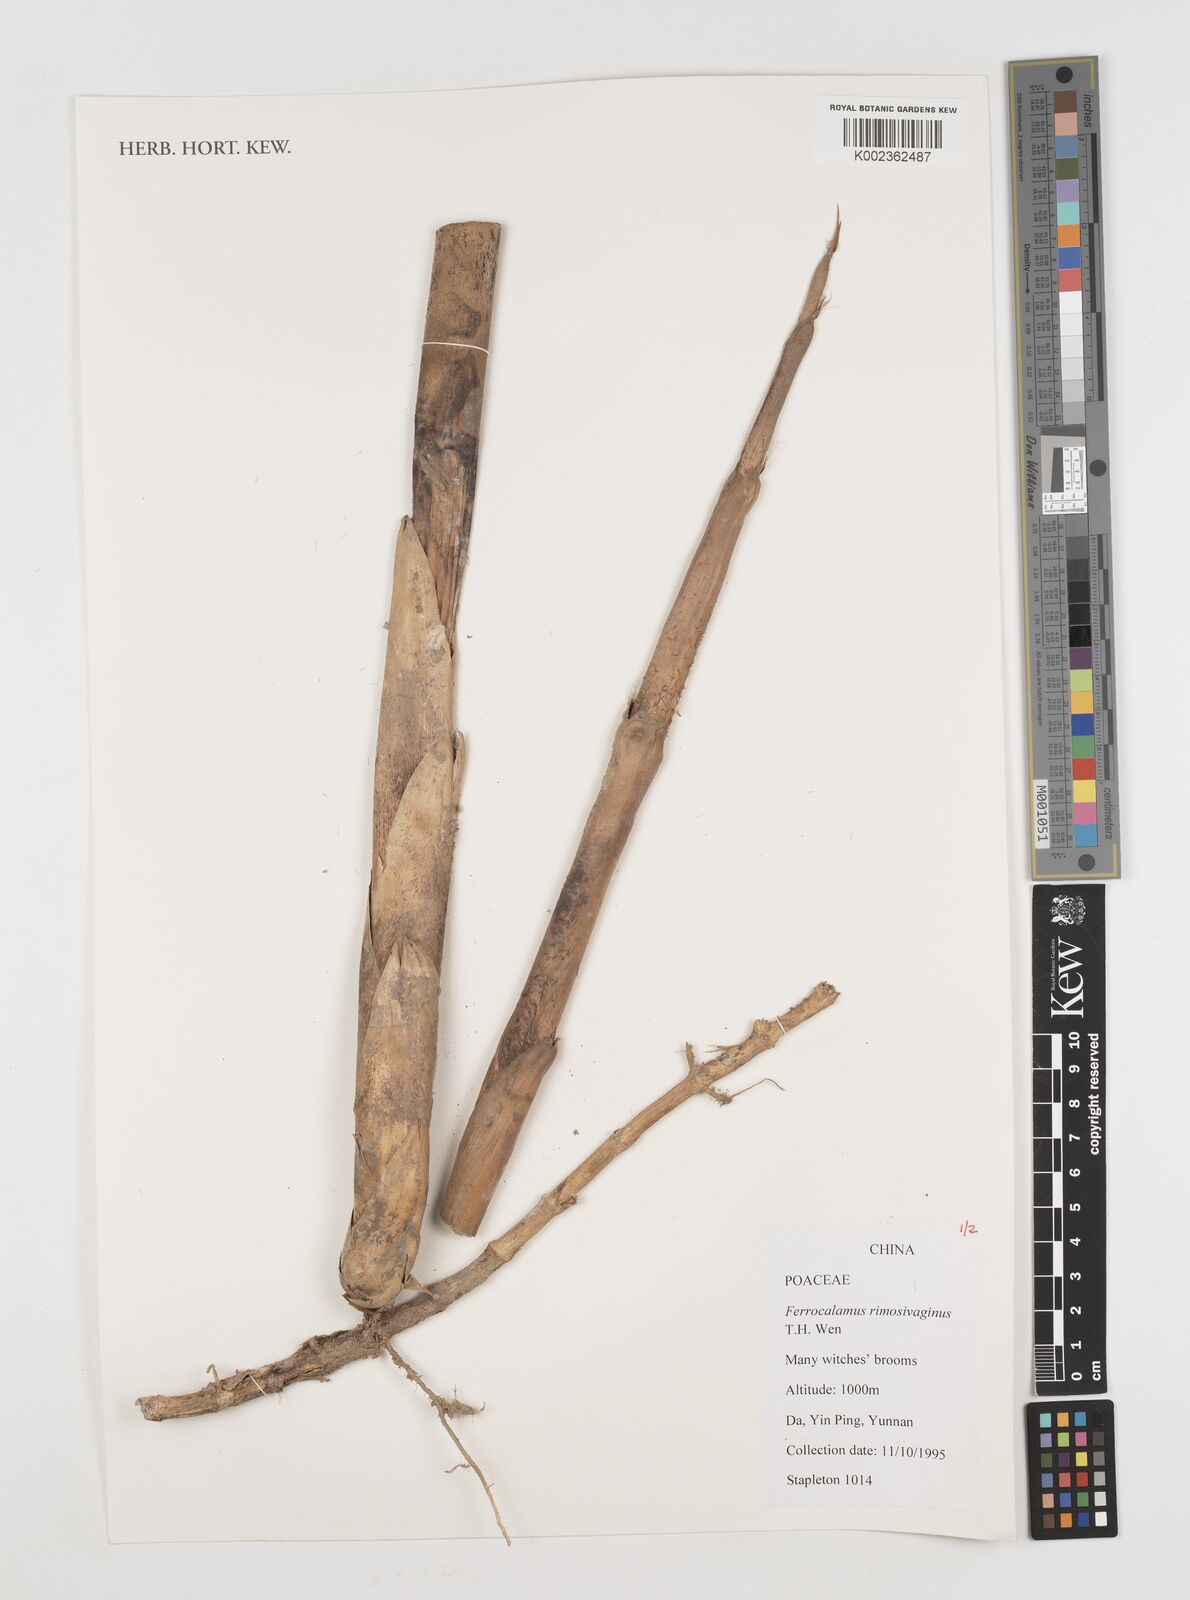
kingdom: Plantae
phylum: Tracheophyta
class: Liliopsida
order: Poales
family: Poaceae
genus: Ferrocalamus
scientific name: Ferrocalamus rimosivaginus
